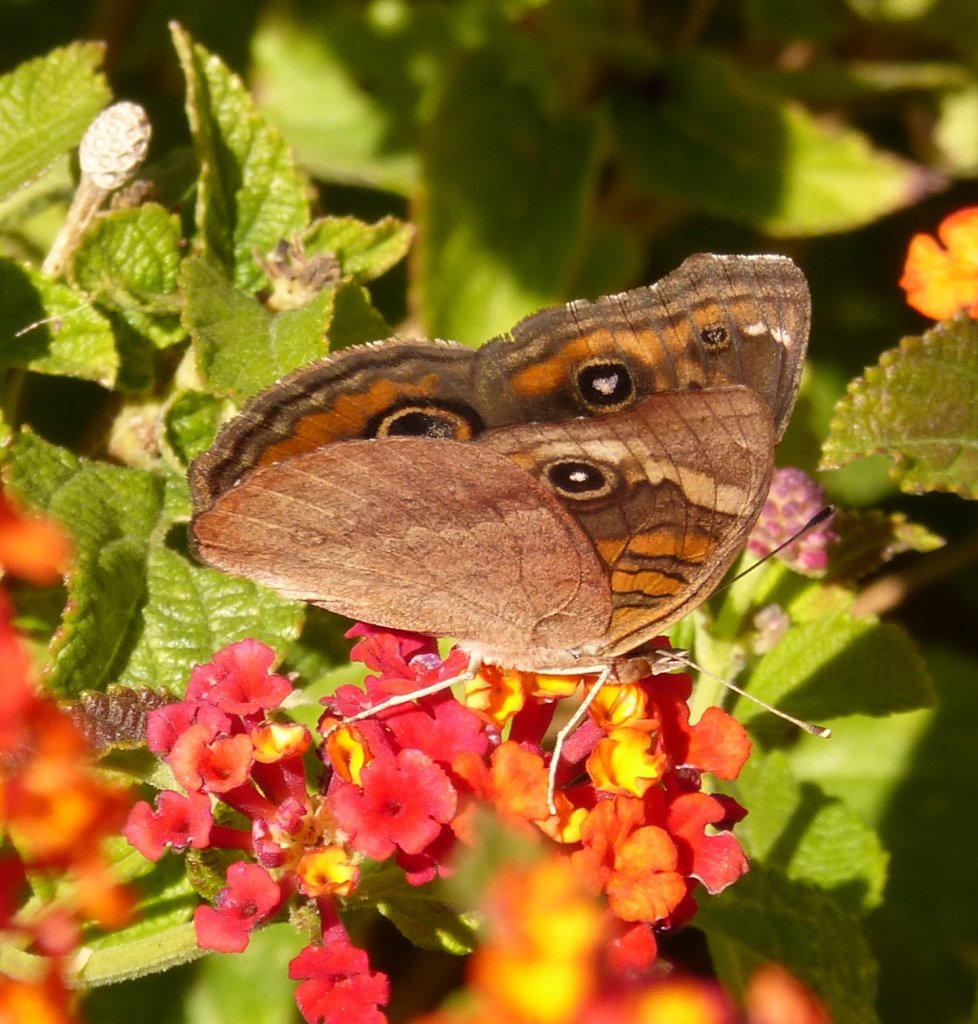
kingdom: Animalia
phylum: Arthropoda
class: Insecta
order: Lepidoptera
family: Nymphalidae
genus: Junonia
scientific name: Junonia lavinia
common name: Tropical Buckeye
